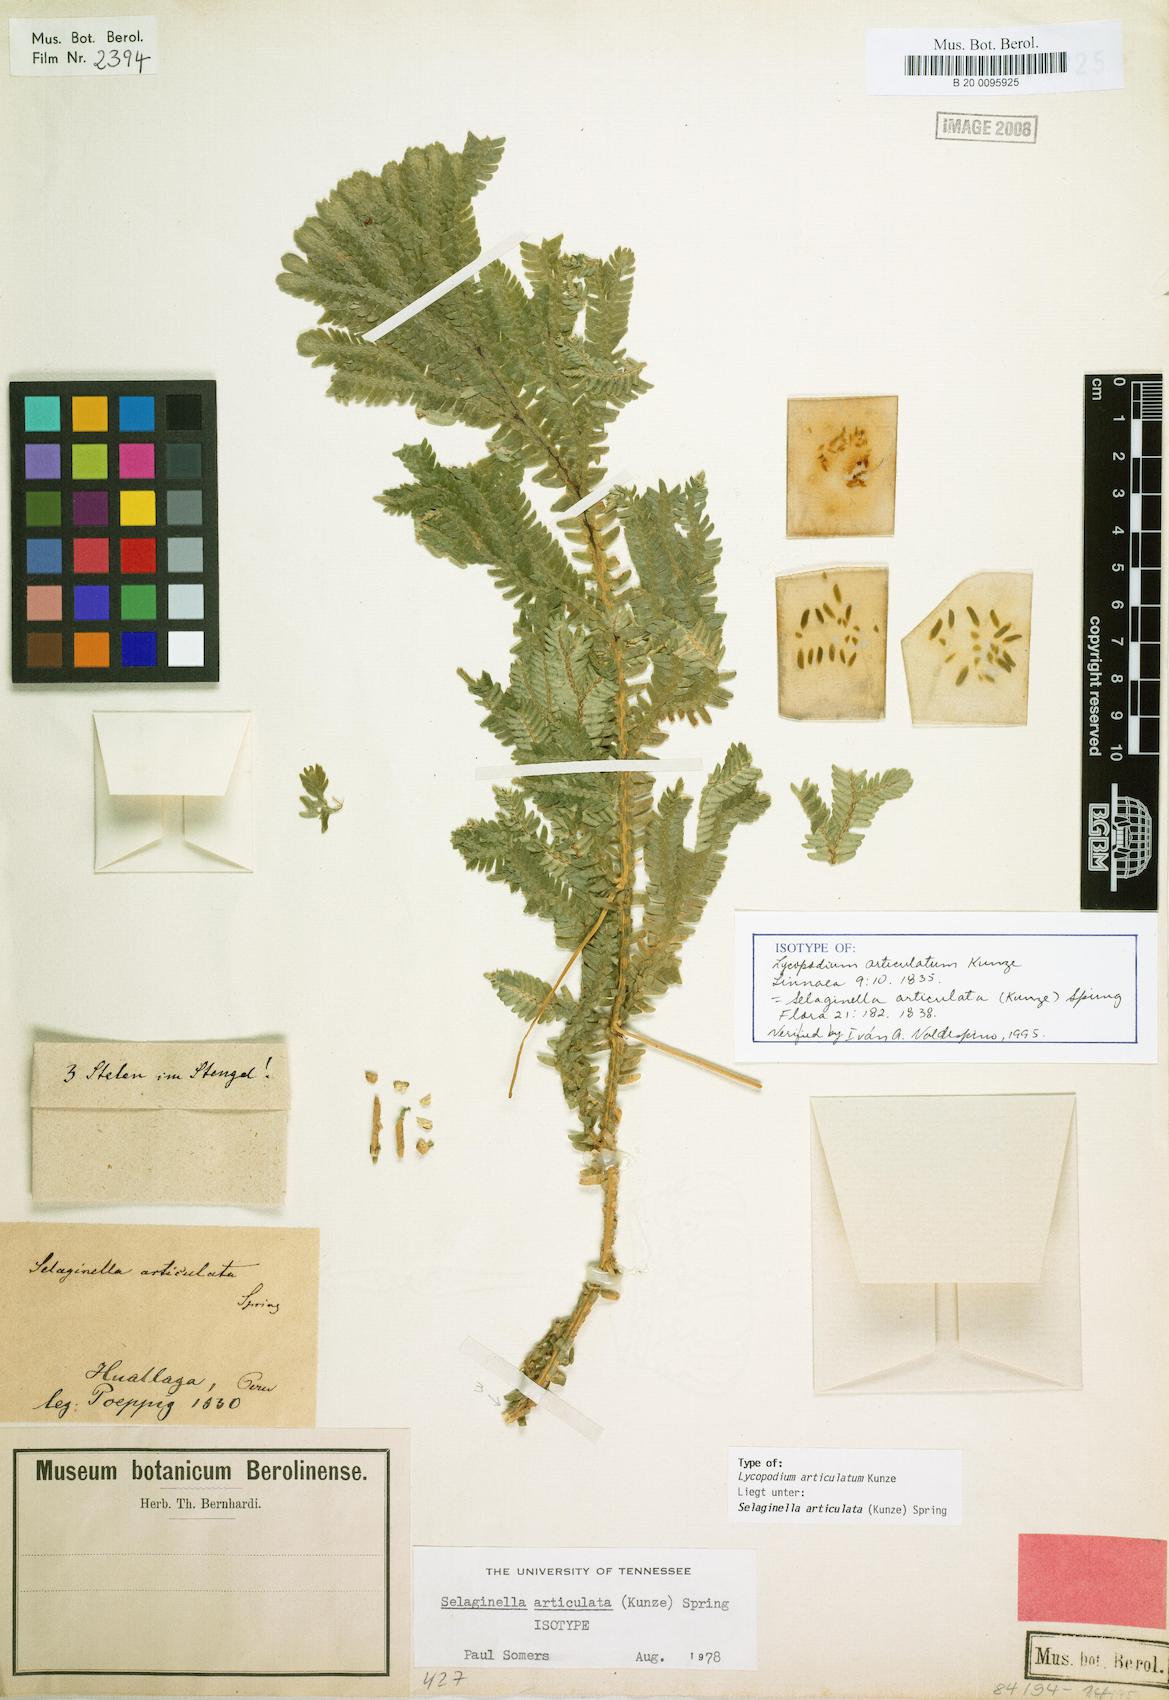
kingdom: Plantae
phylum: Tracheophyta
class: Lycopodiopsida
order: Selaginellales
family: Selaginellaceae
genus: Selaginella
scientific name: Selaginella articulata
